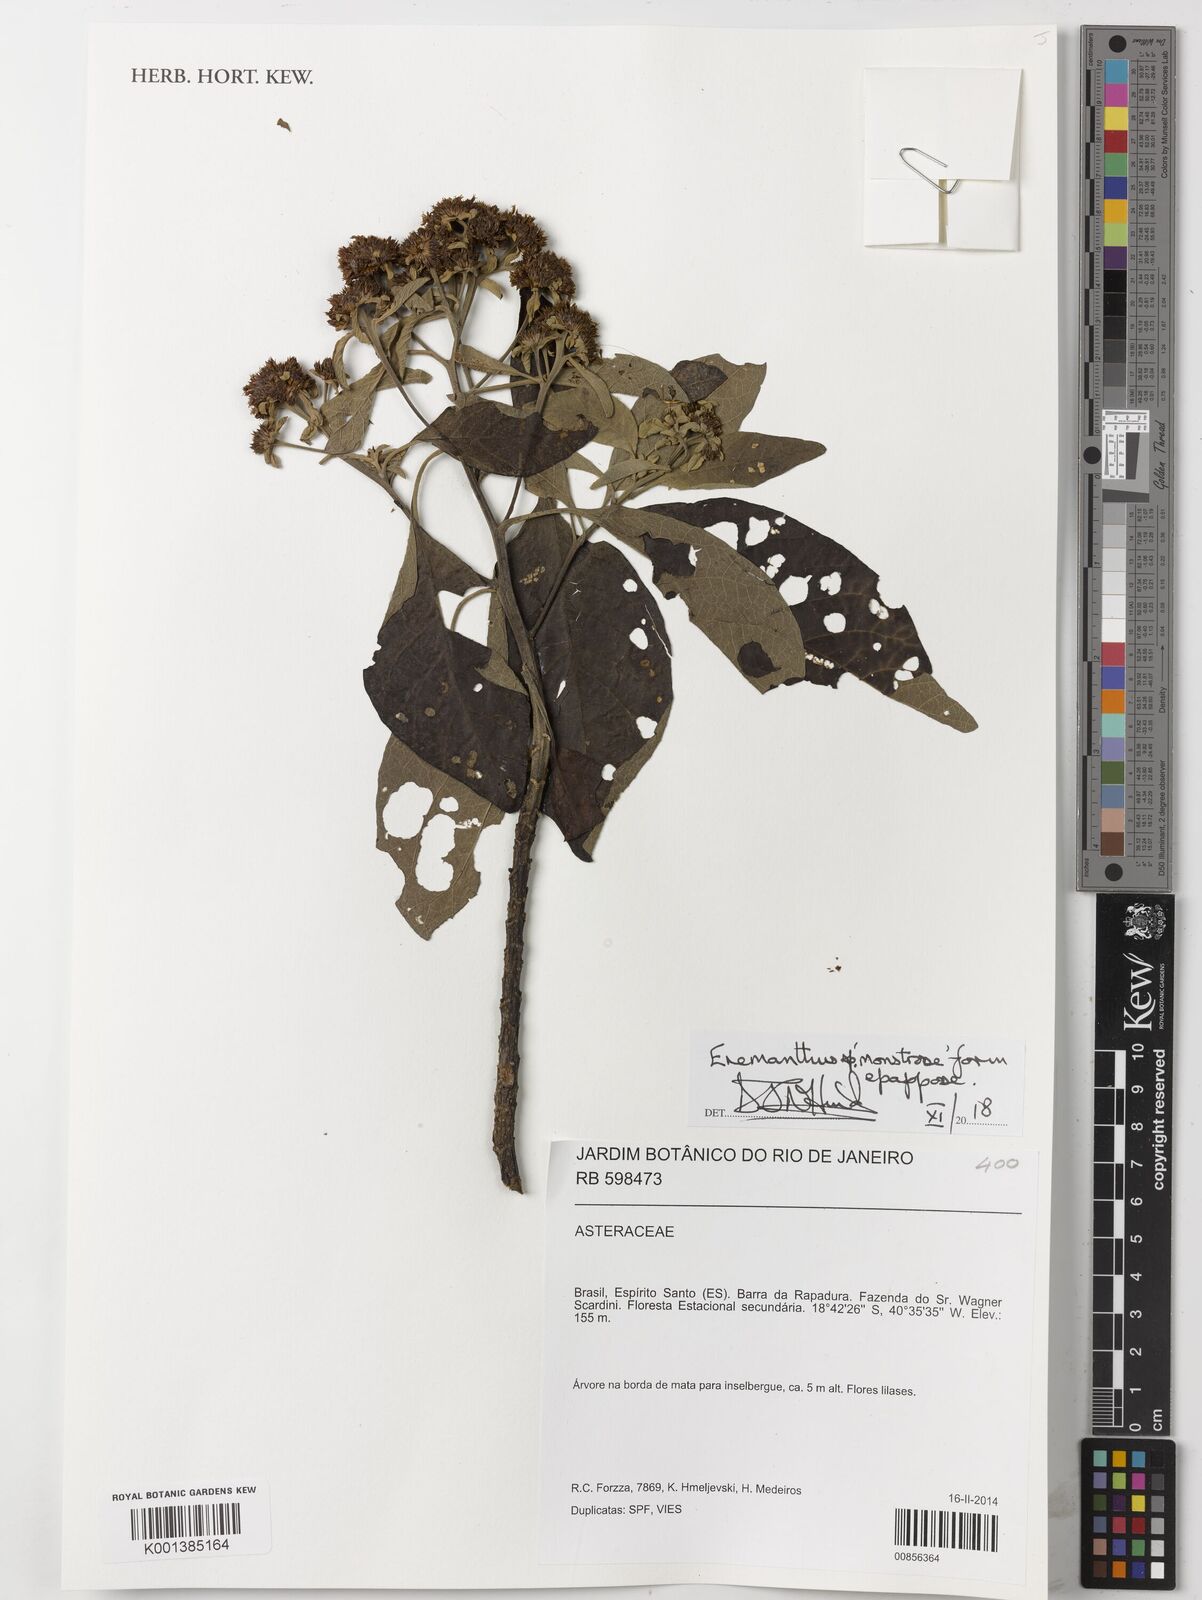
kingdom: Plantae
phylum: Tracheophyta
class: Magnoliopsida
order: Asterales
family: Asteraceae
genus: Eremanthus
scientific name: Eremanthus
